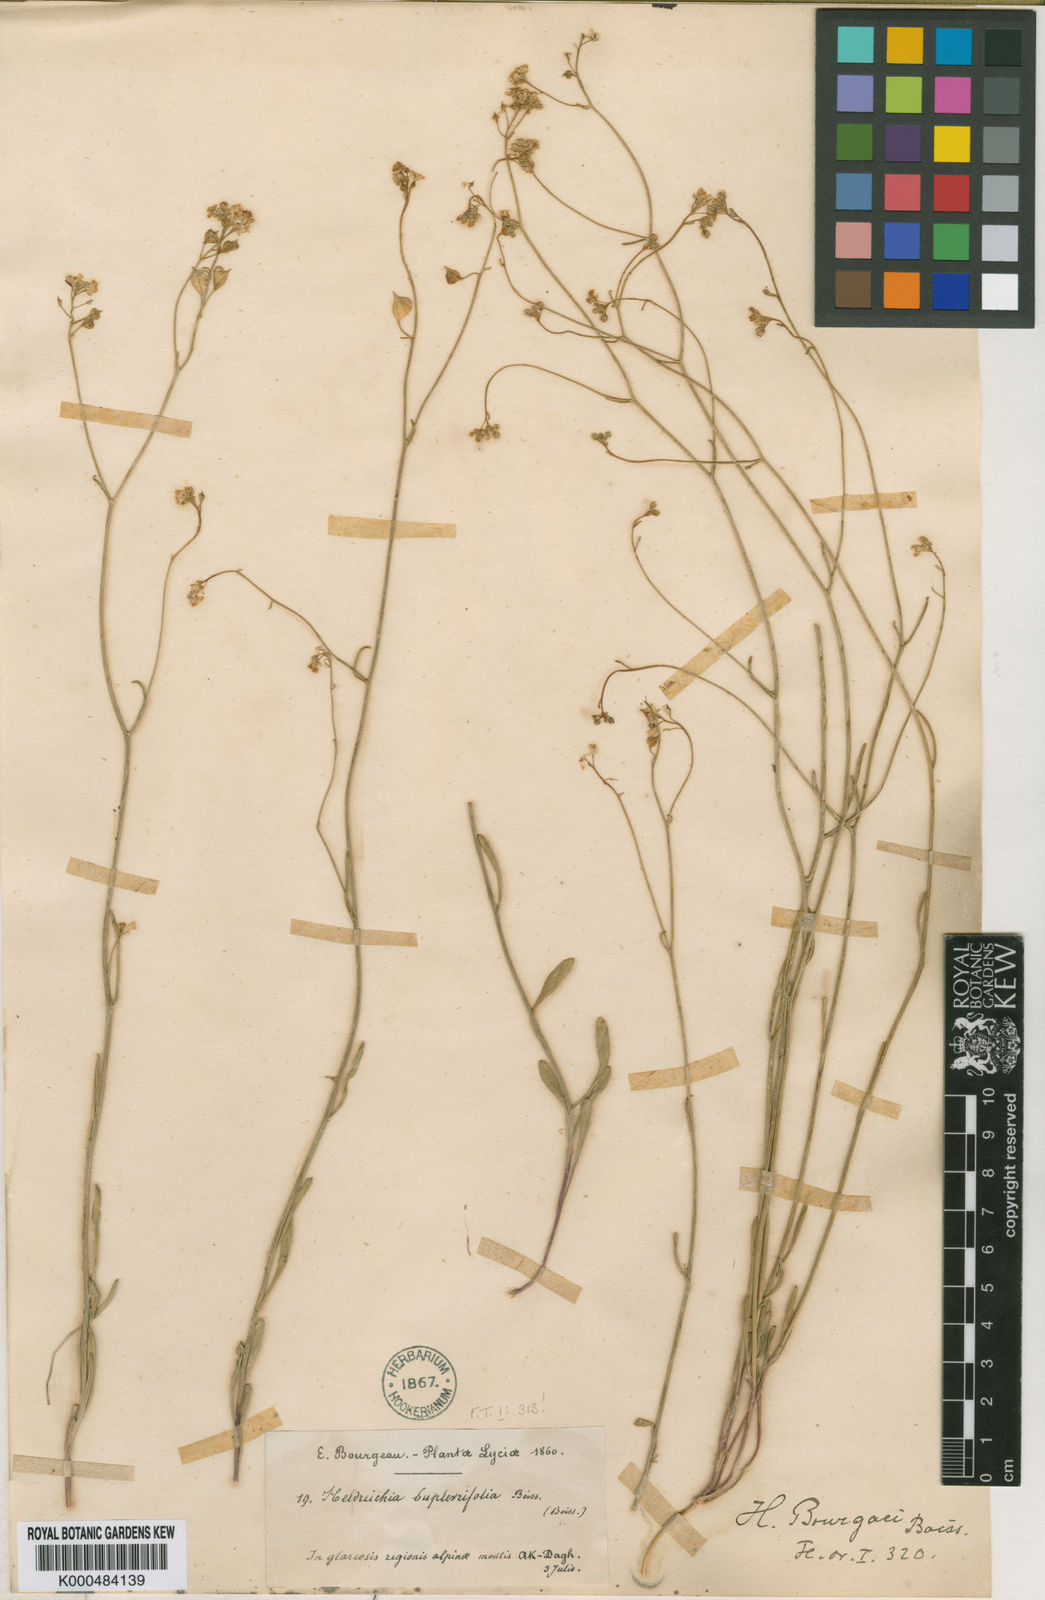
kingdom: Plantae
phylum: Tracheophyta
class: Magnoliopsida
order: Brassicales
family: Brassicaceae
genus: Heldreichia
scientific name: Heldreichia
